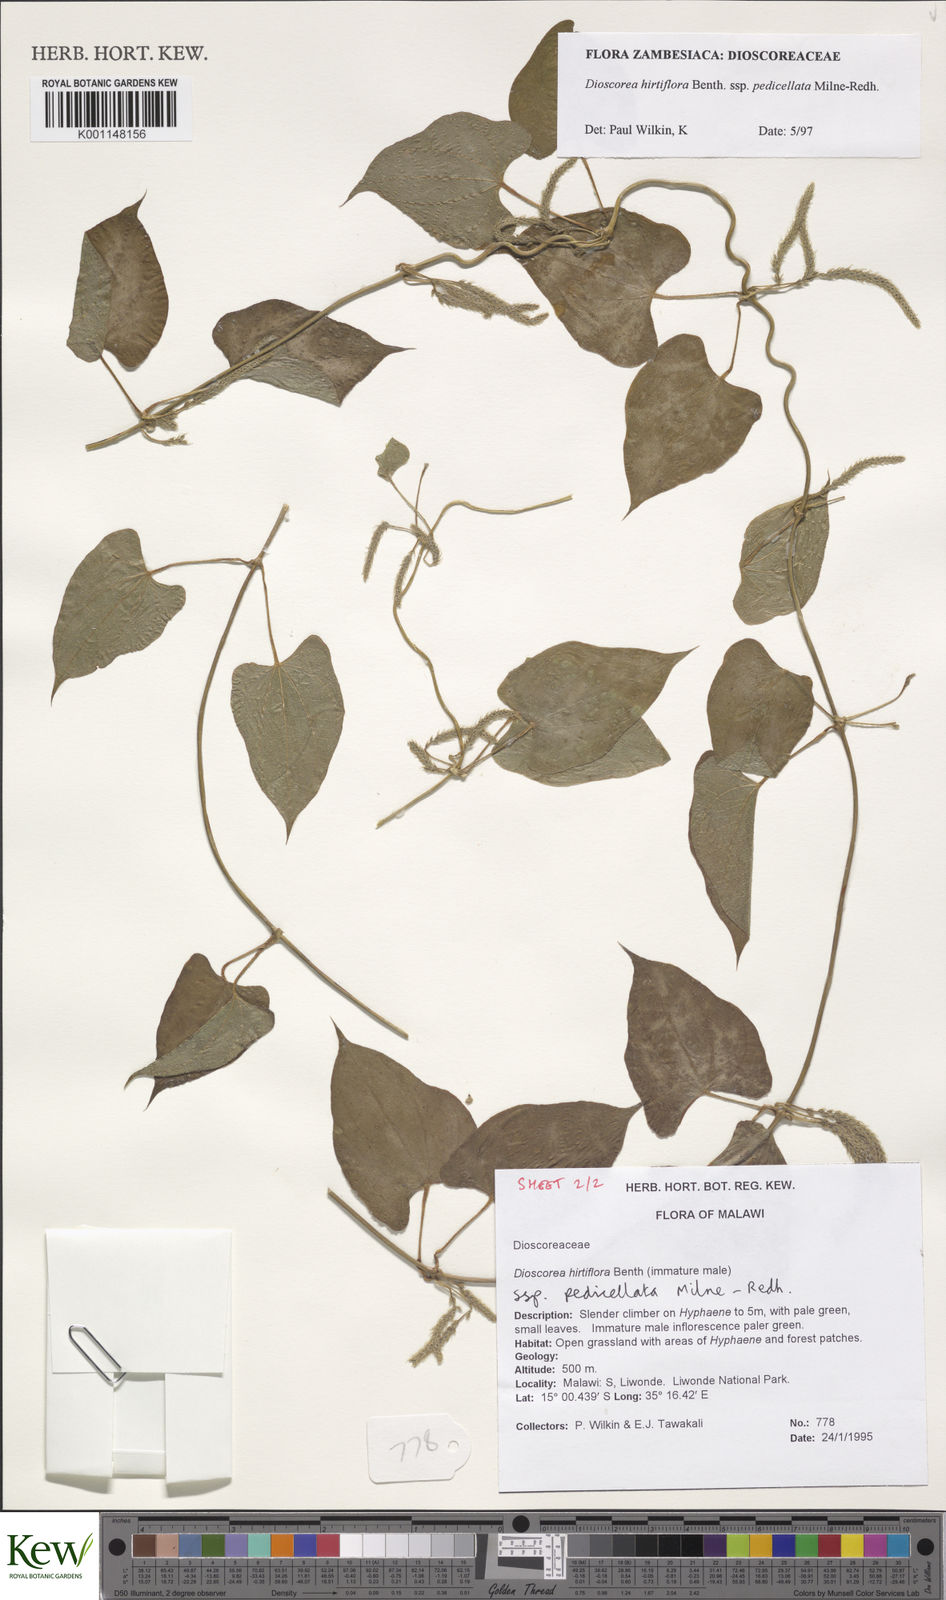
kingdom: Plantae
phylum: Tracheophyta
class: Liliopsida
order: Dioscoreales
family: Dioscoreaceae
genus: Dioscorea
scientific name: Dioscorea hirtiflora
